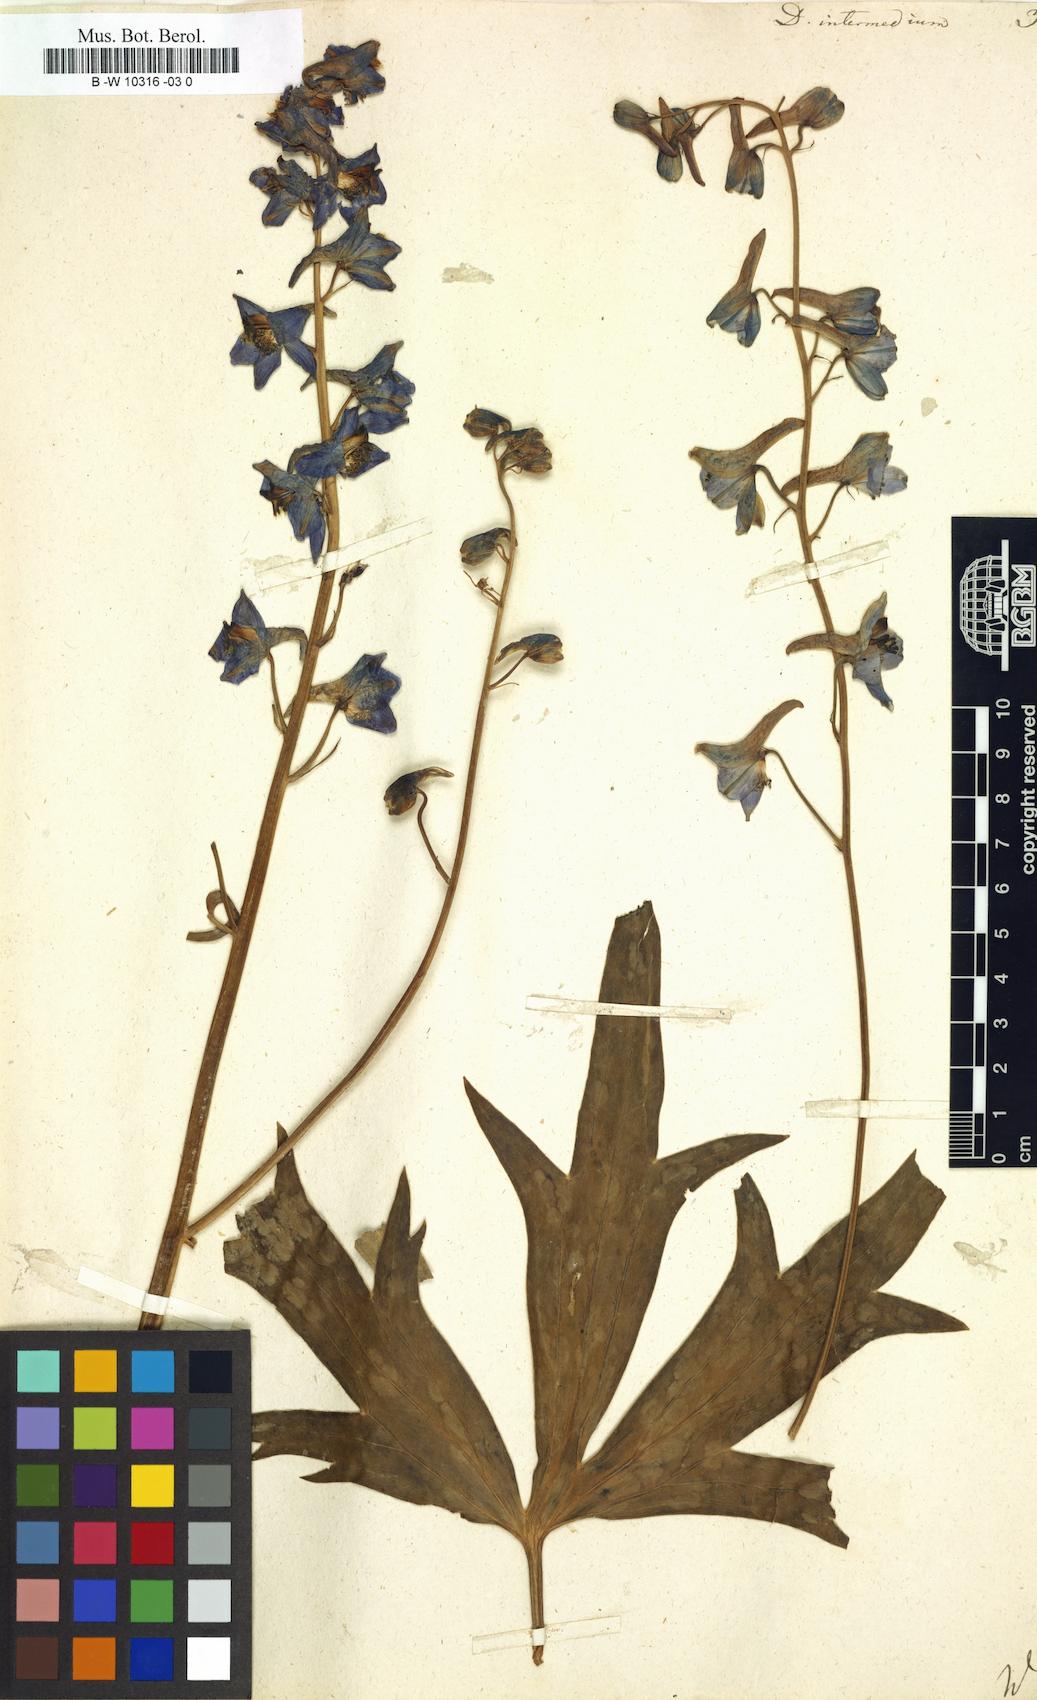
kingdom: Plantae
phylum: Tracheophyta
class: Magnoliopsida
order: Ranunculales
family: Ranunculaceae
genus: Delphinium
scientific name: Delphinium elatum
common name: Candle larkspur
